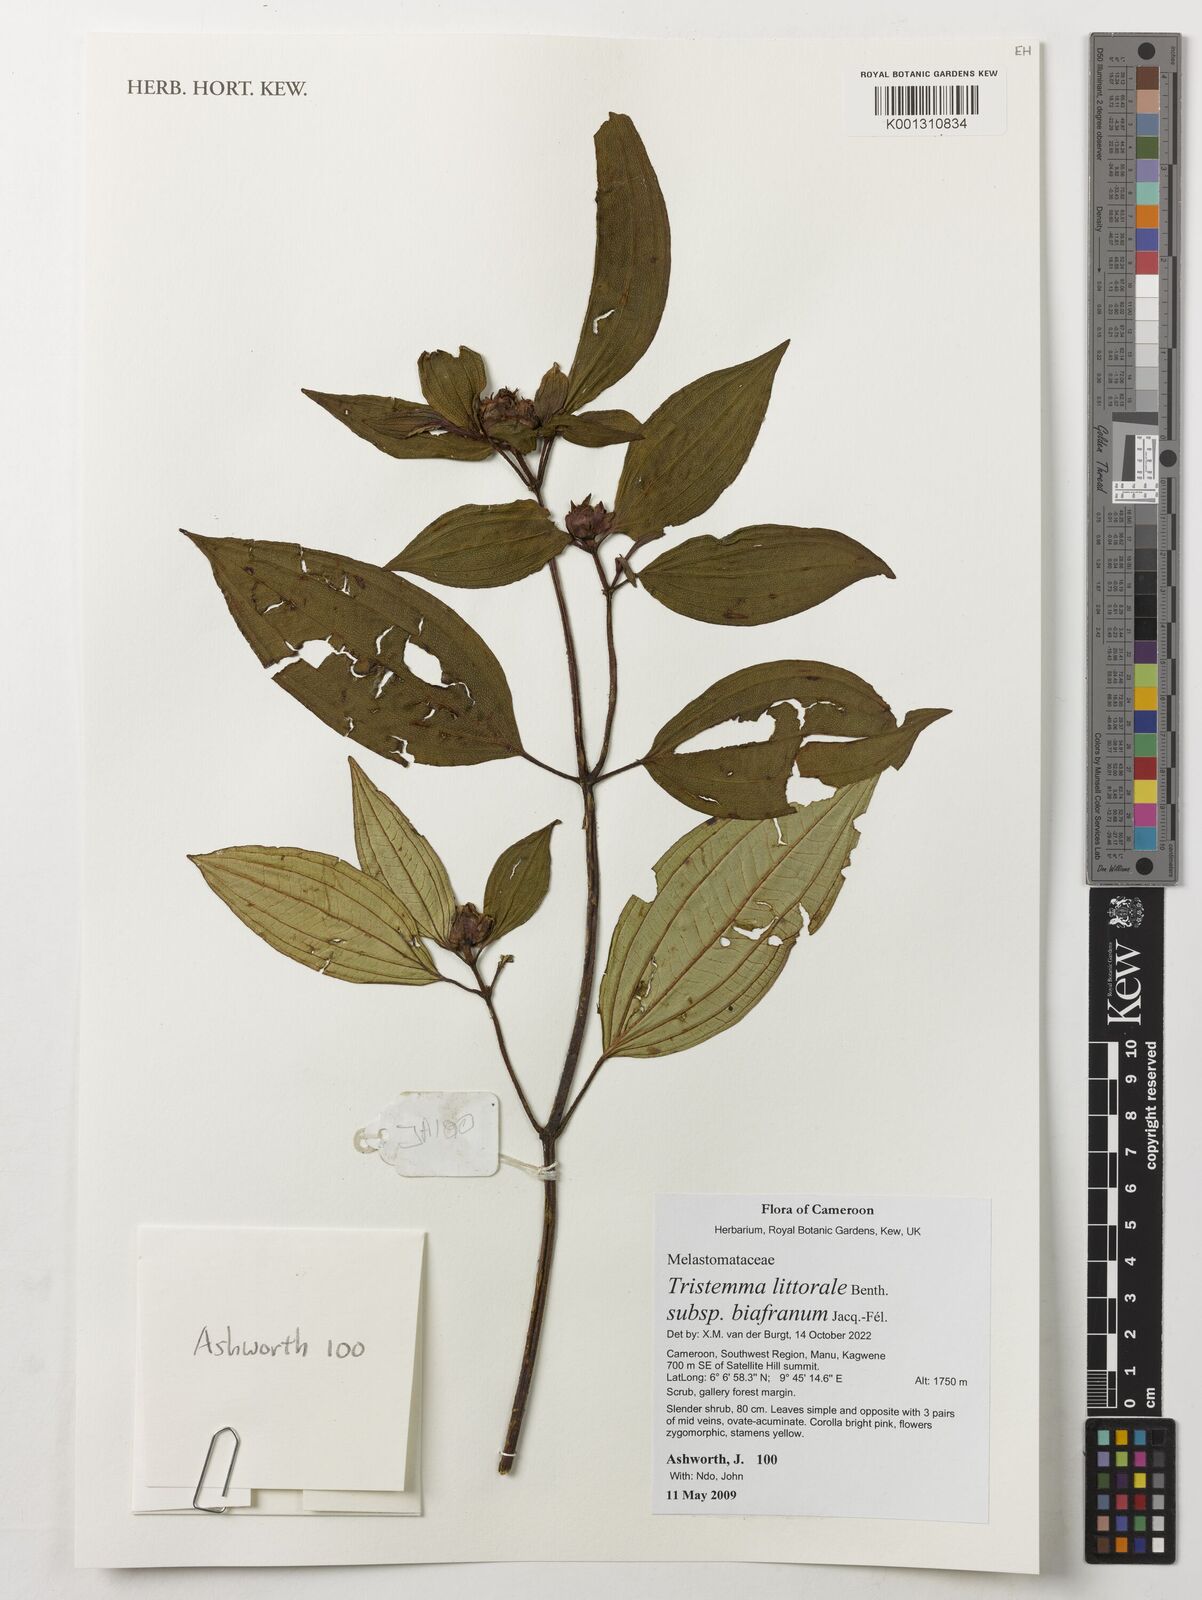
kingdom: Plantae
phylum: Tracheophyta
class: Magnoliopsida
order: Myrtales
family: Melastomataceae
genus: Tristemma
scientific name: Tristemma littorale
